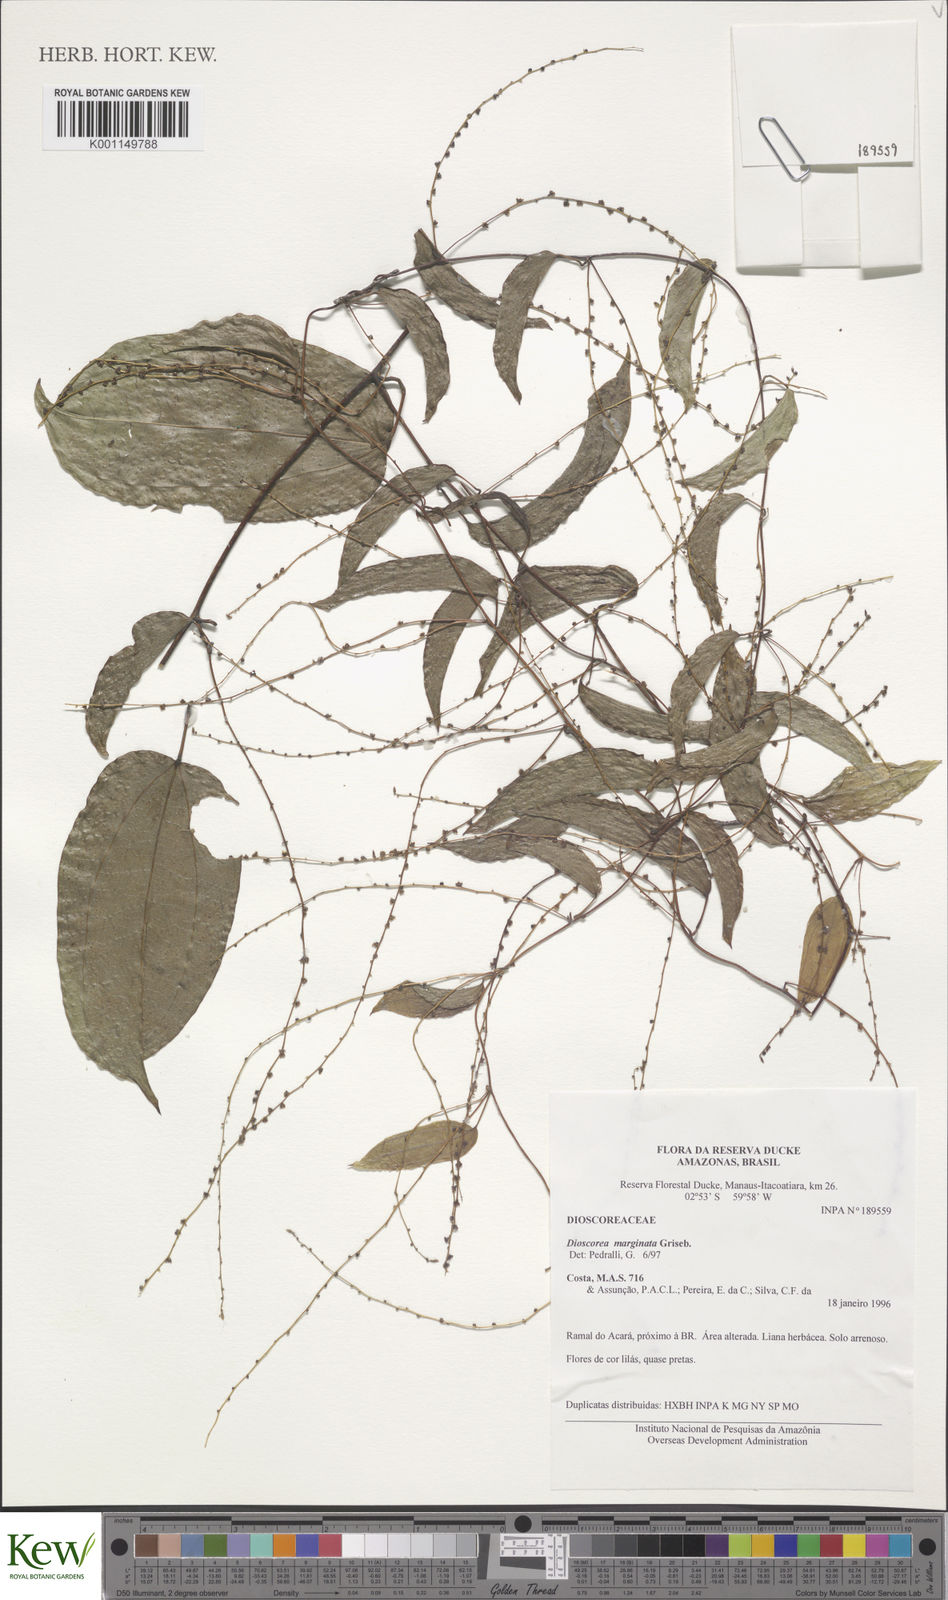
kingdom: Plantae
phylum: Tracheophyta
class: Liliopsida
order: Dioscoreales
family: Dioscoreaceae
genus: Dioscorea
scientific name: Dioscorea
